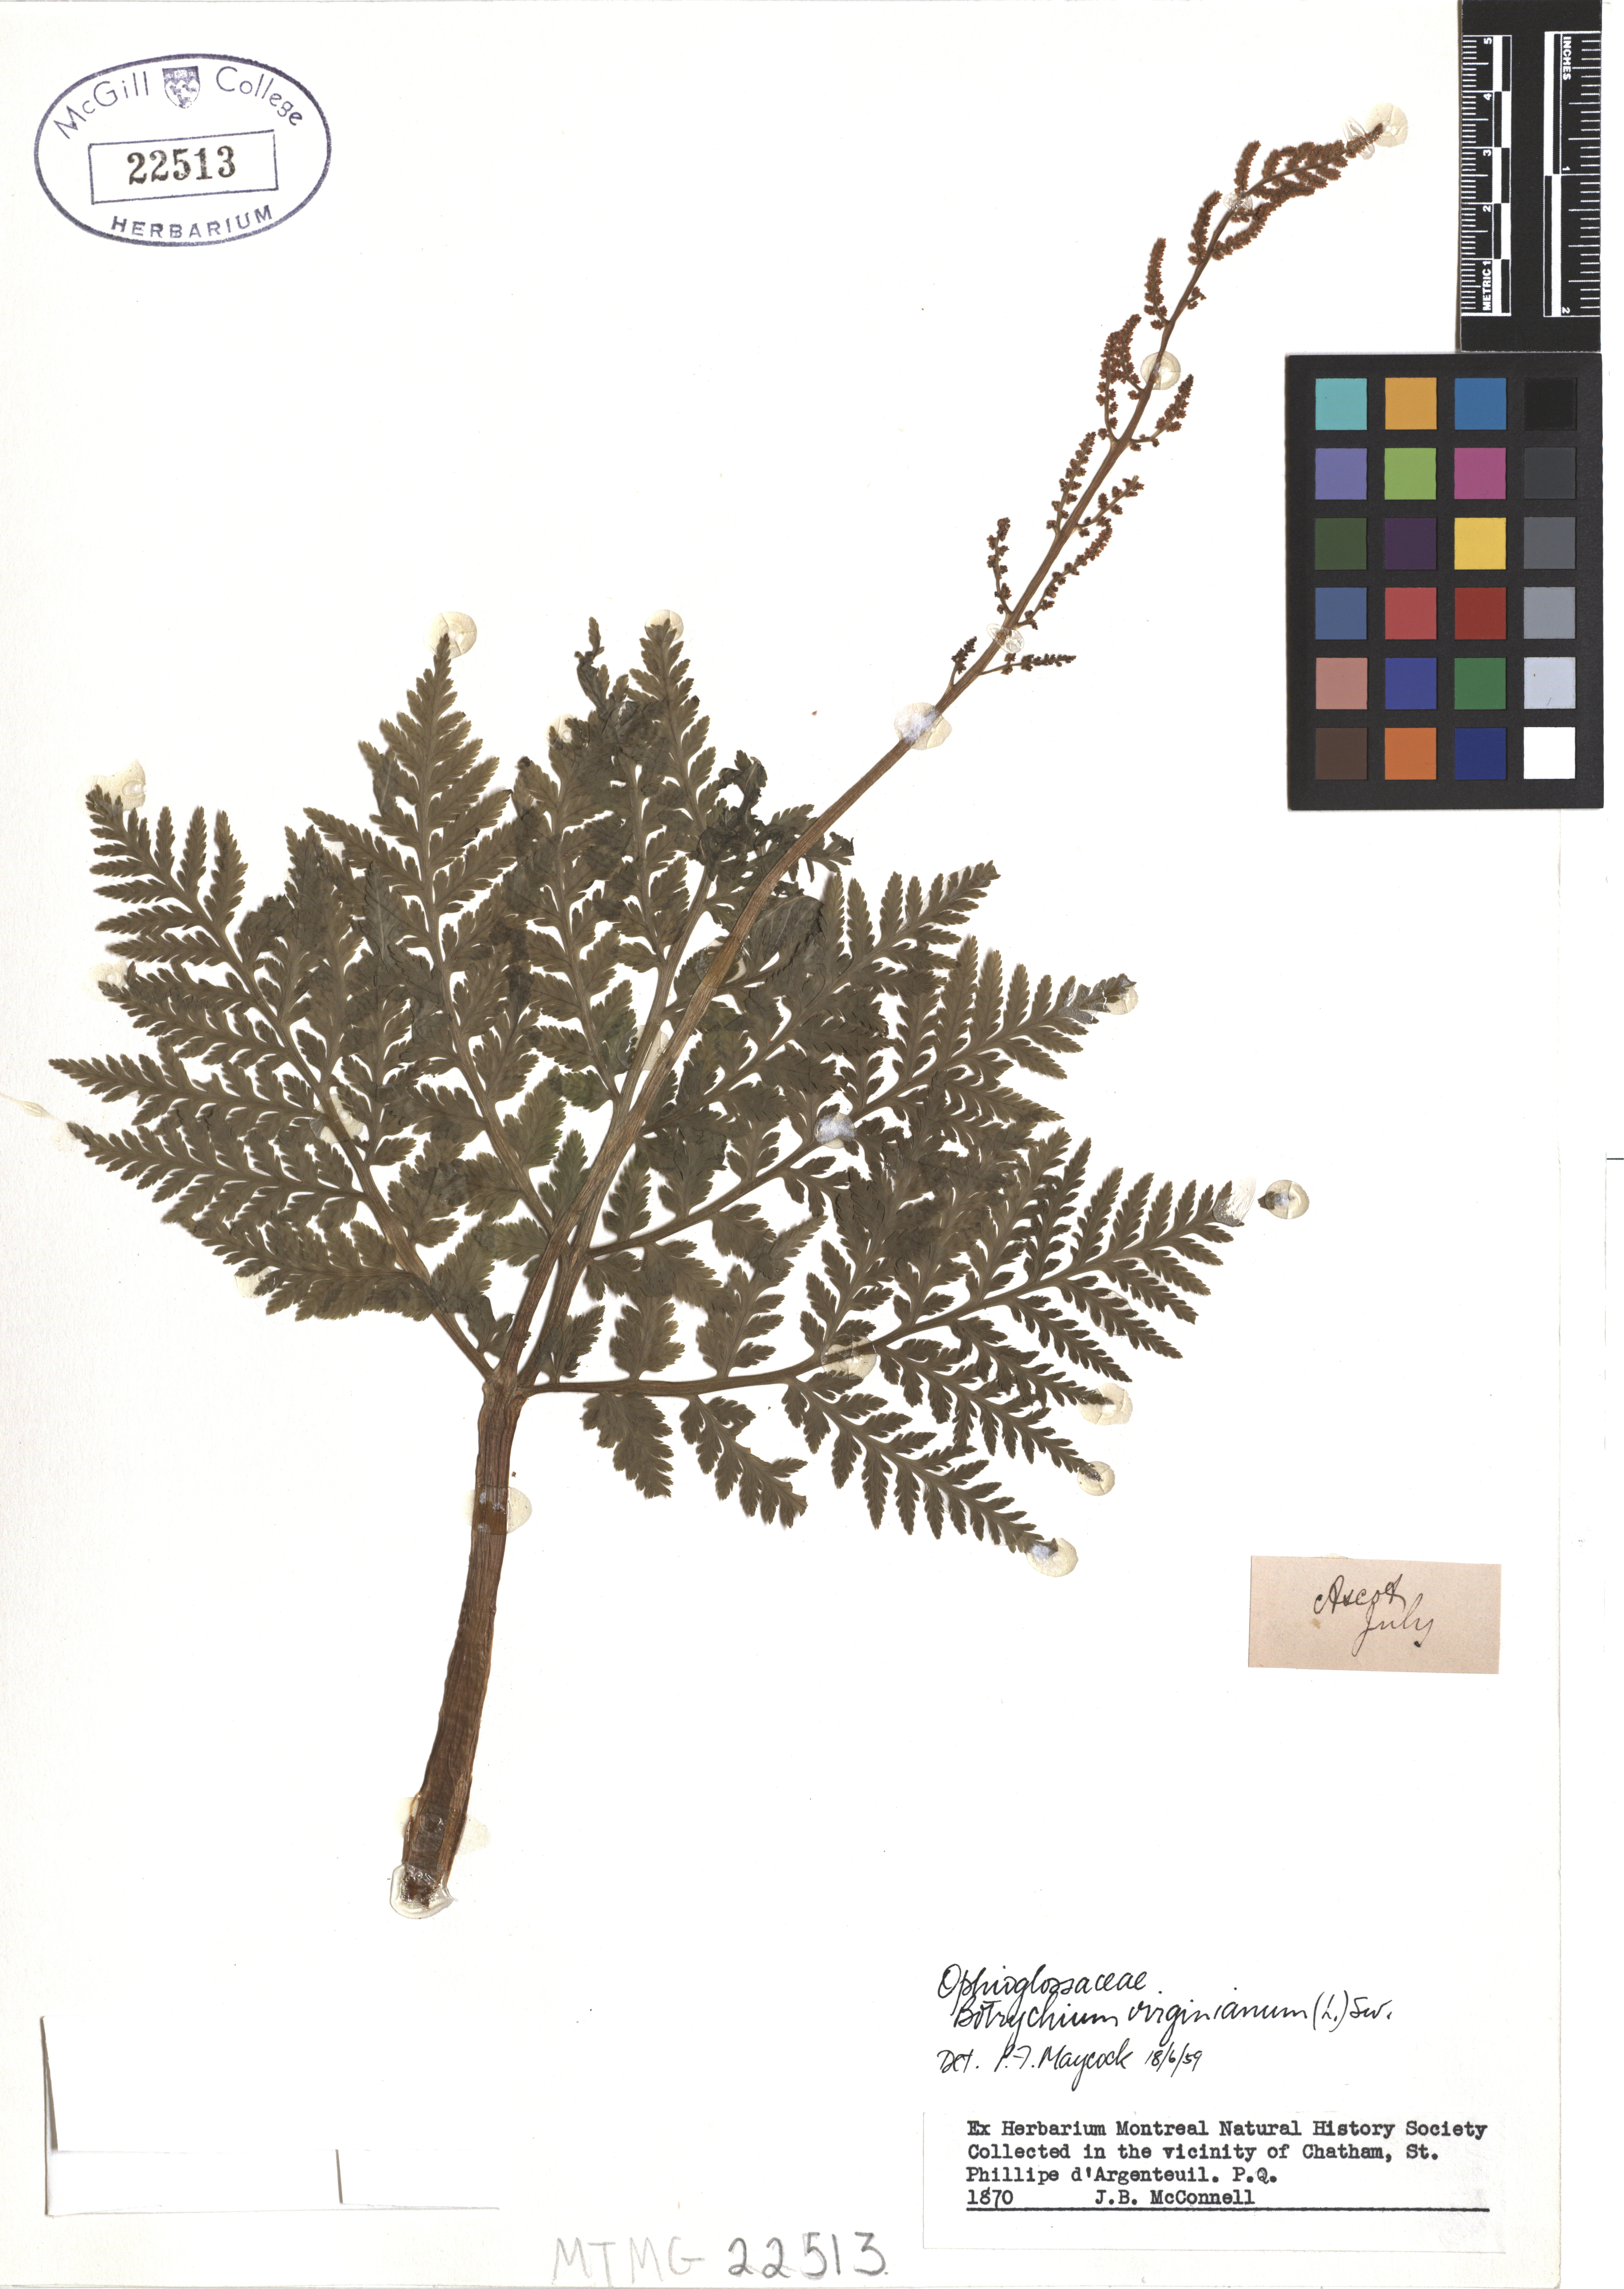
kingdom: Plantae
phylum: Tracheophyta
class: Polypodiopsida
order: Ophioglossales
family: Ophioglossaceae
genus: Botrypus
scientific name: Botrypus virginianus
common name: Common grapefern
